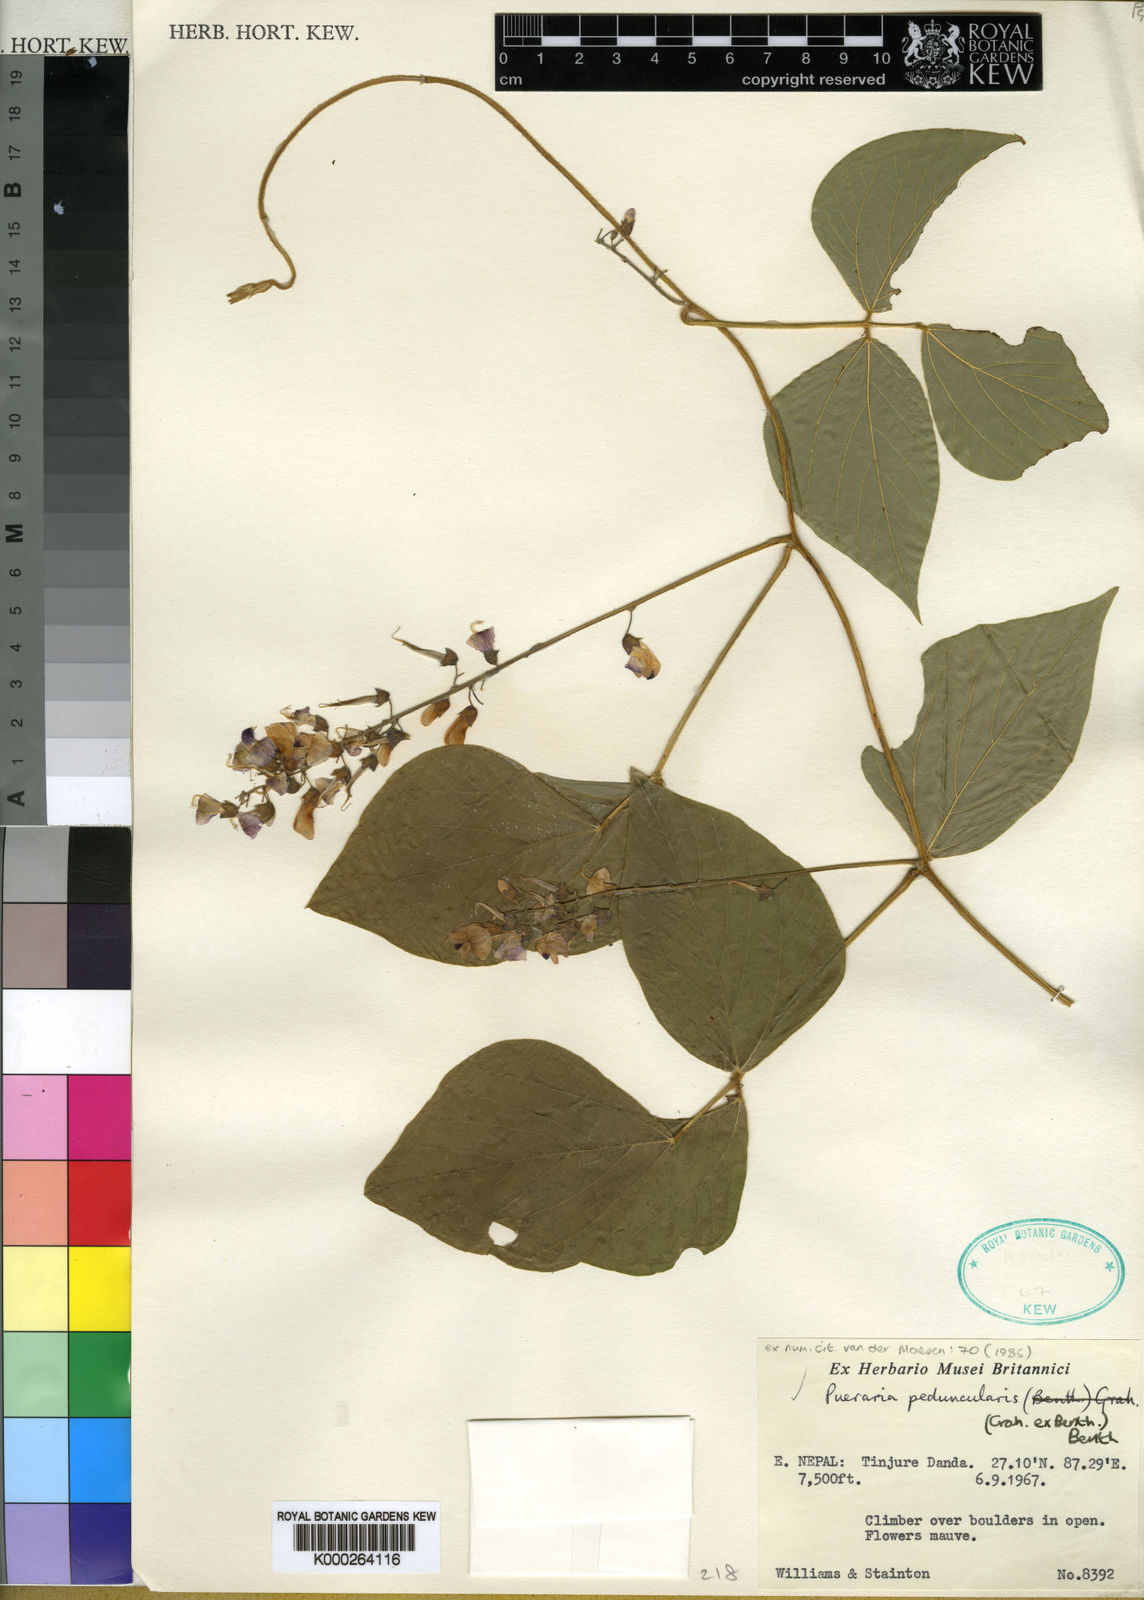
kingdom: Plantae
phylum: Tracheophyta
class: Magnoliopsida
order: Fabales
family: Fabaceae
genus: Toxicopueraria
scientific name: Toxicopueraria peduncularis
